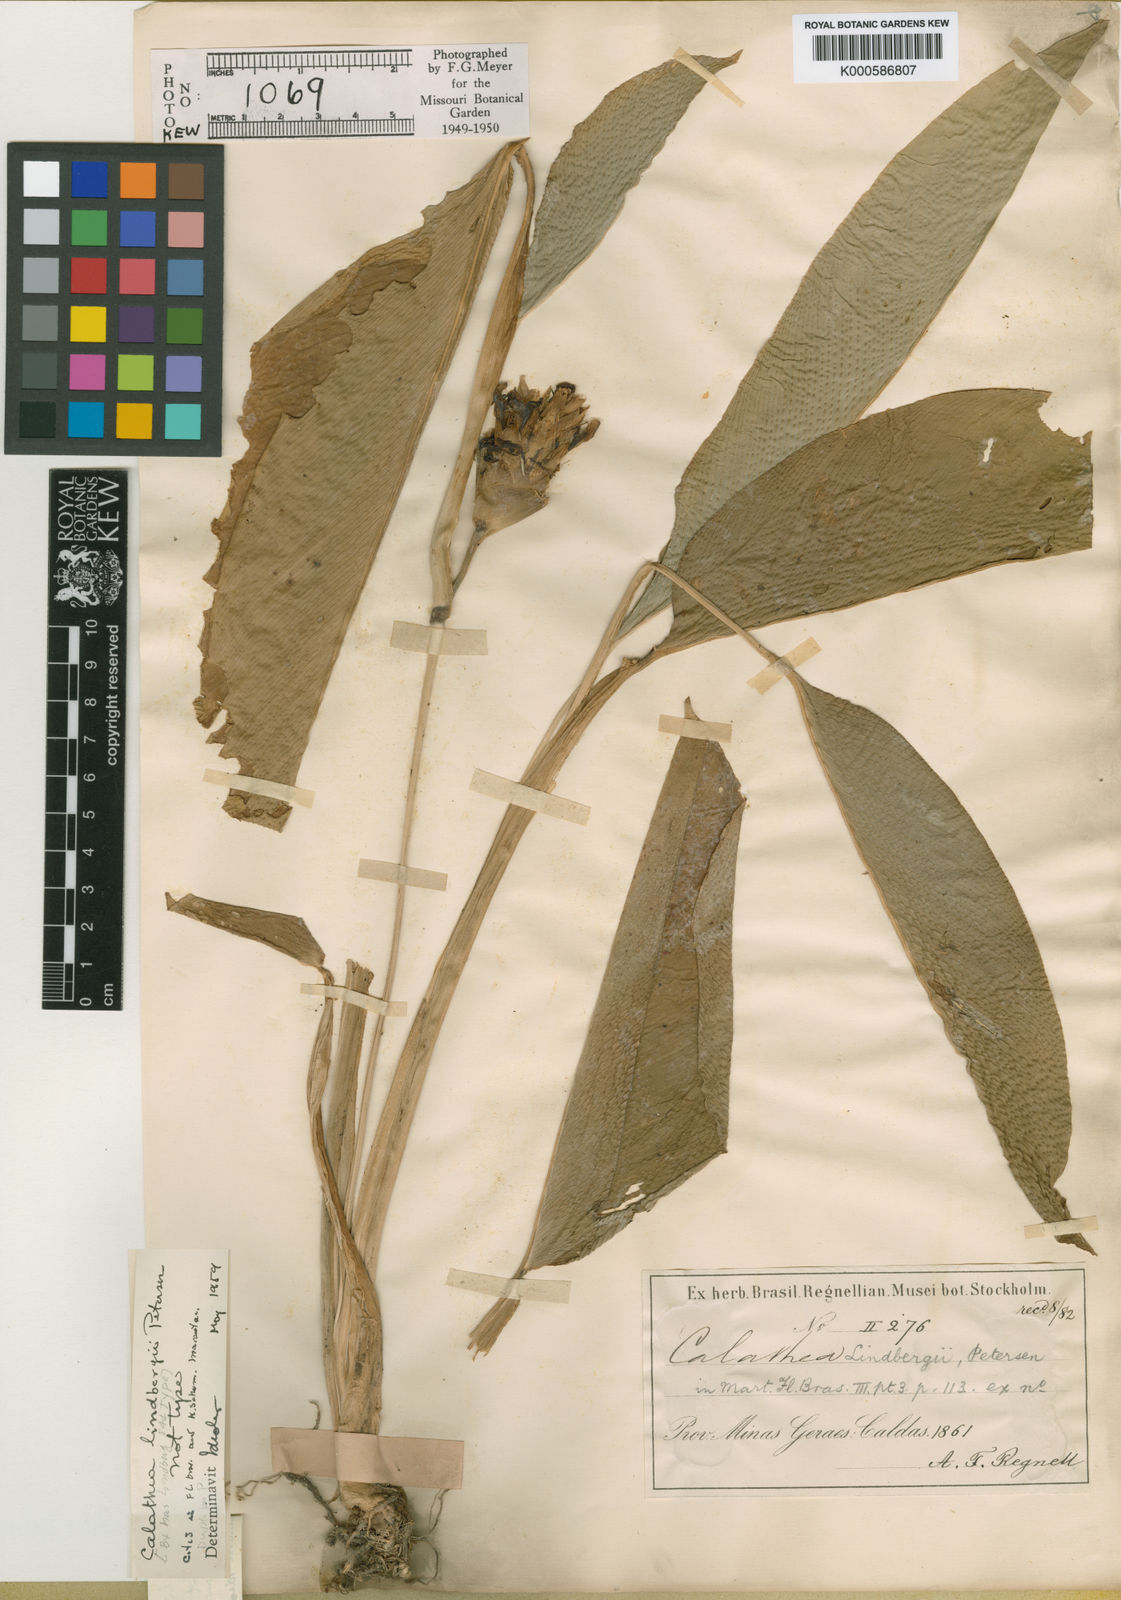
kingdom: Plantae
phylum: Tracheophyta
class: Liliopsida
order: Zingiberales
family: Marantaceae
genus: Goeppertia
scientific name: Goeppertia lindbergii
